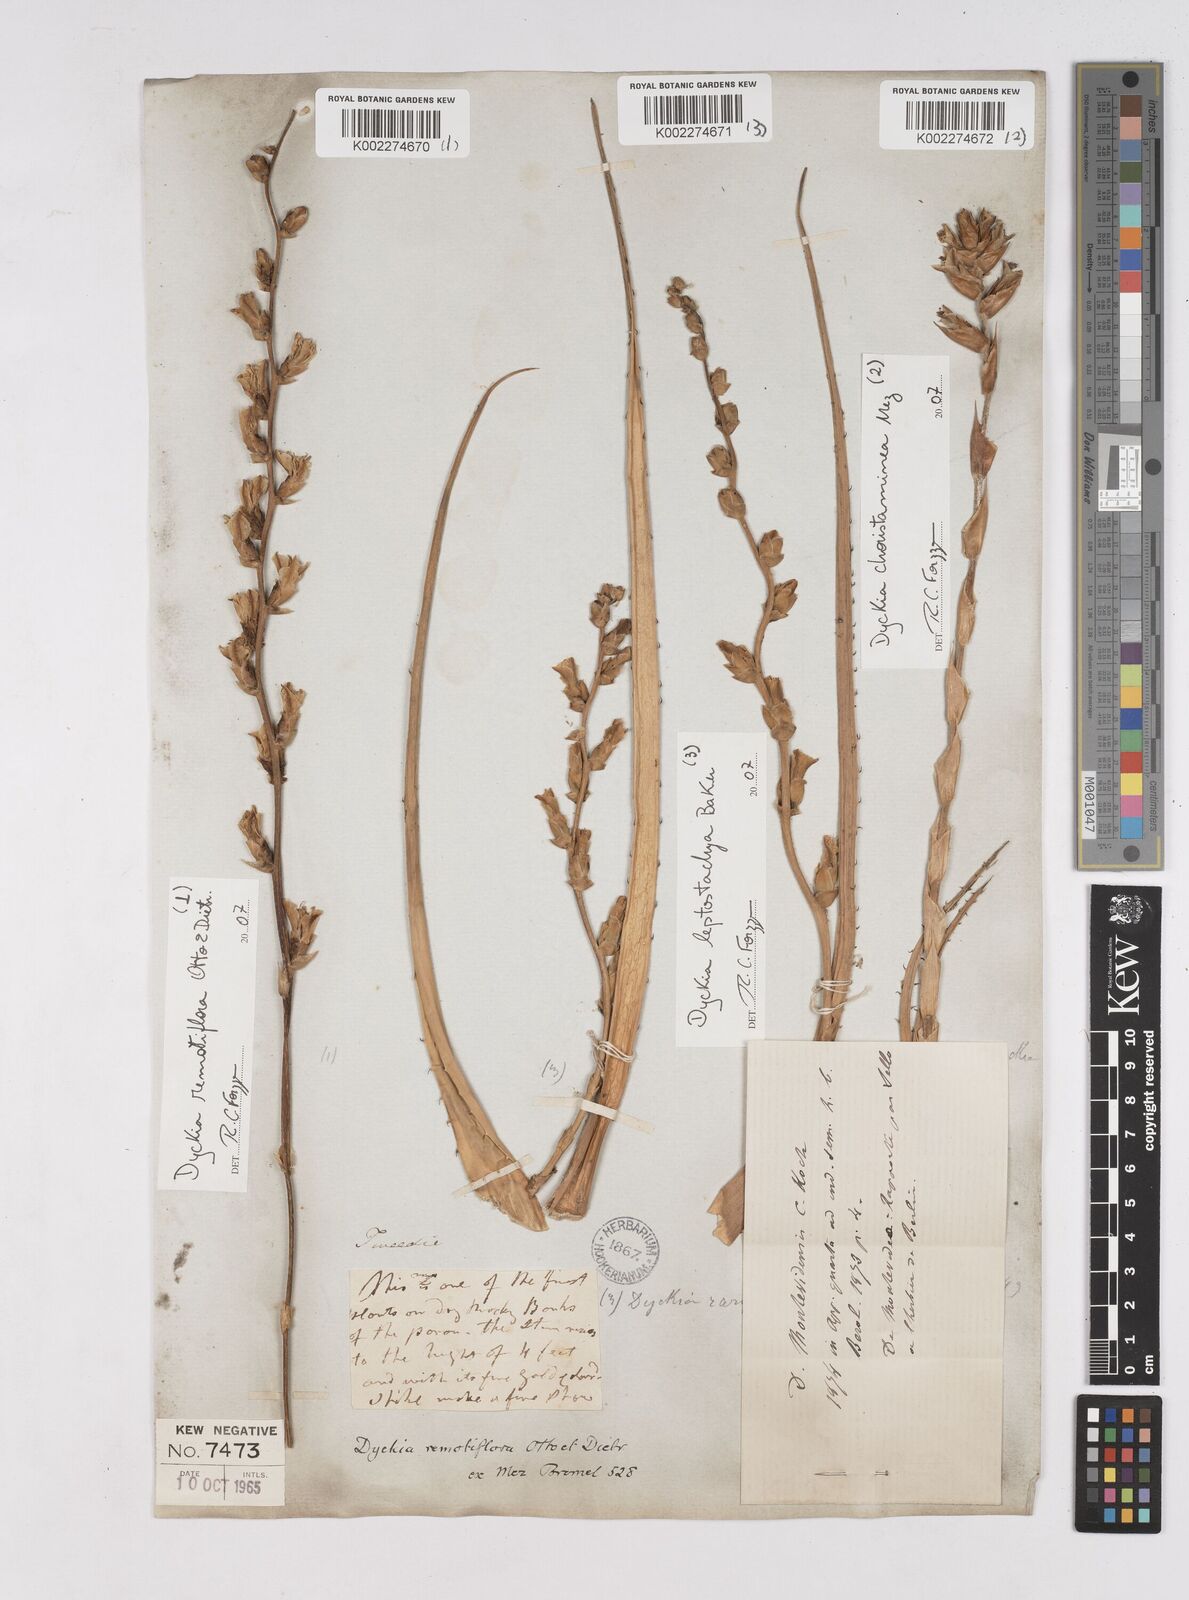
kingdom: Plantae
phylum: Tracheophyta
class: Liliopsida
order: Poales
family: Bromeliaceae
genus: Dyckia
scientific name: Dyckia remotiflora
